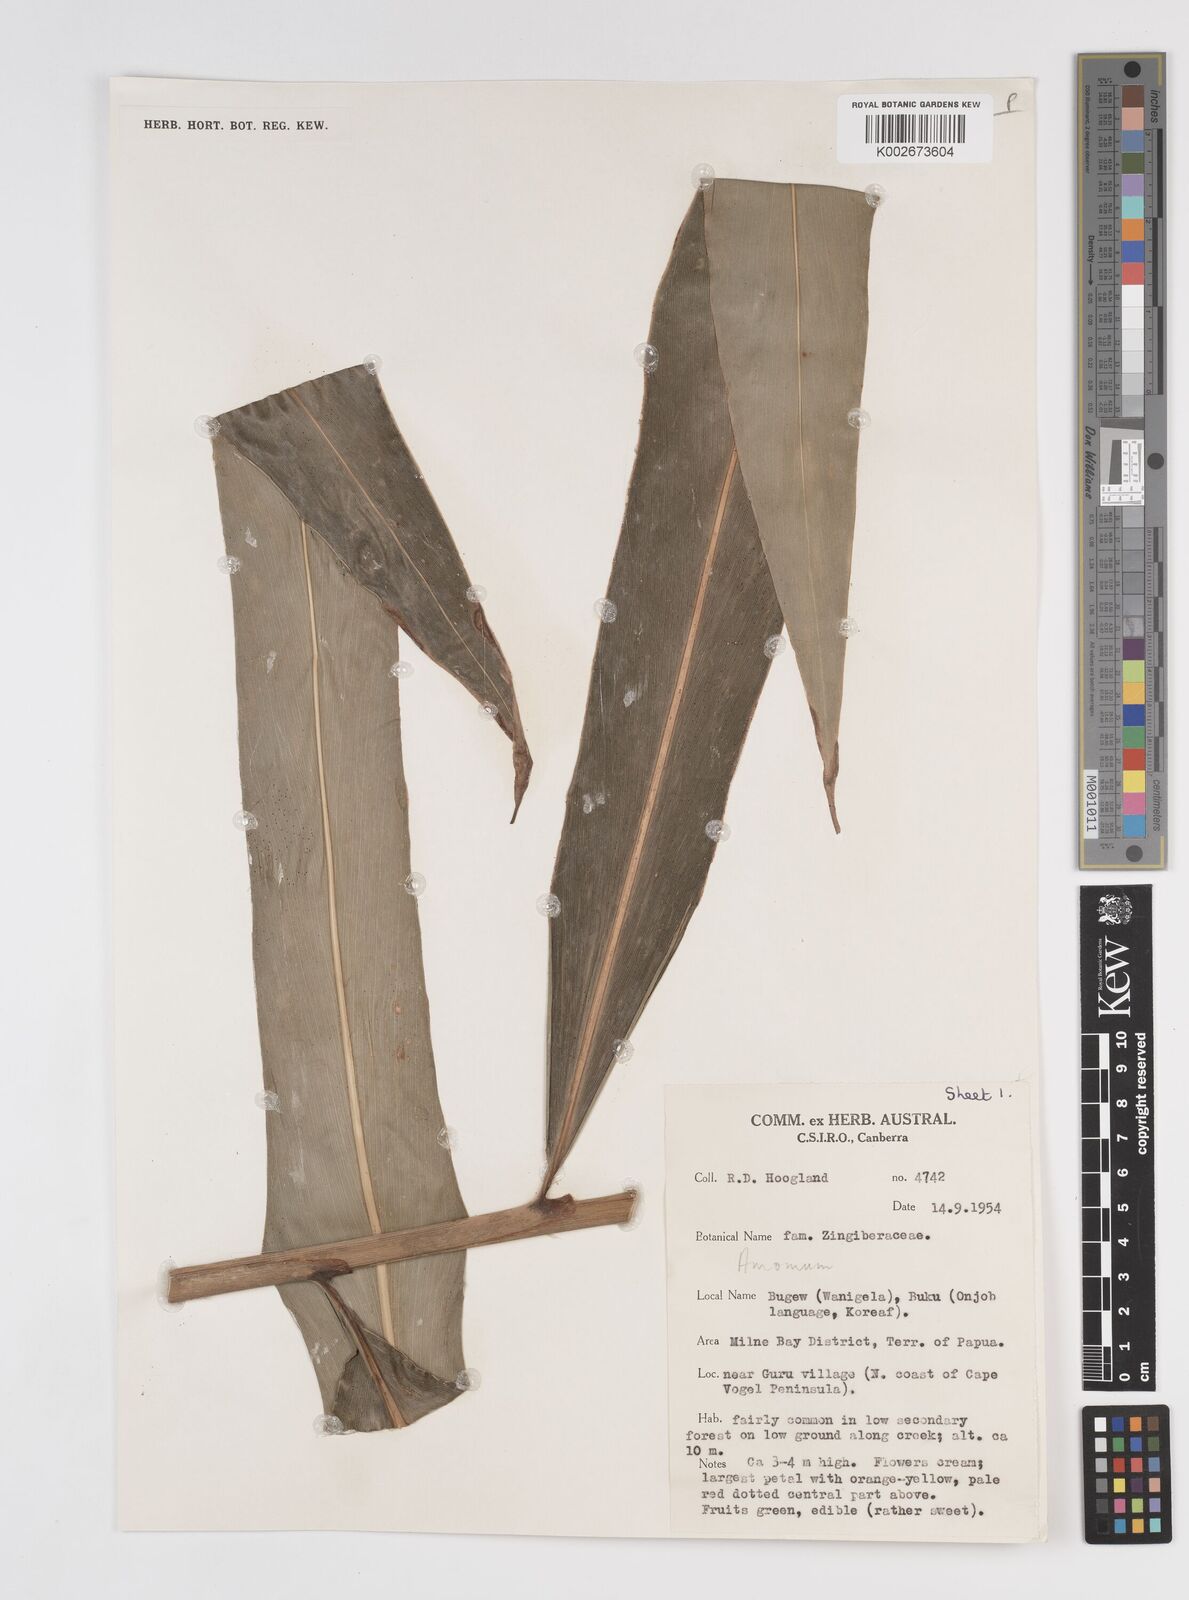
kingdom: Plantae
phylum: Tracheophyta
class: Liliopsida
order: Zingiberales
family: Zingiberaceae
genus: Amomum
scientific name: Amomum
